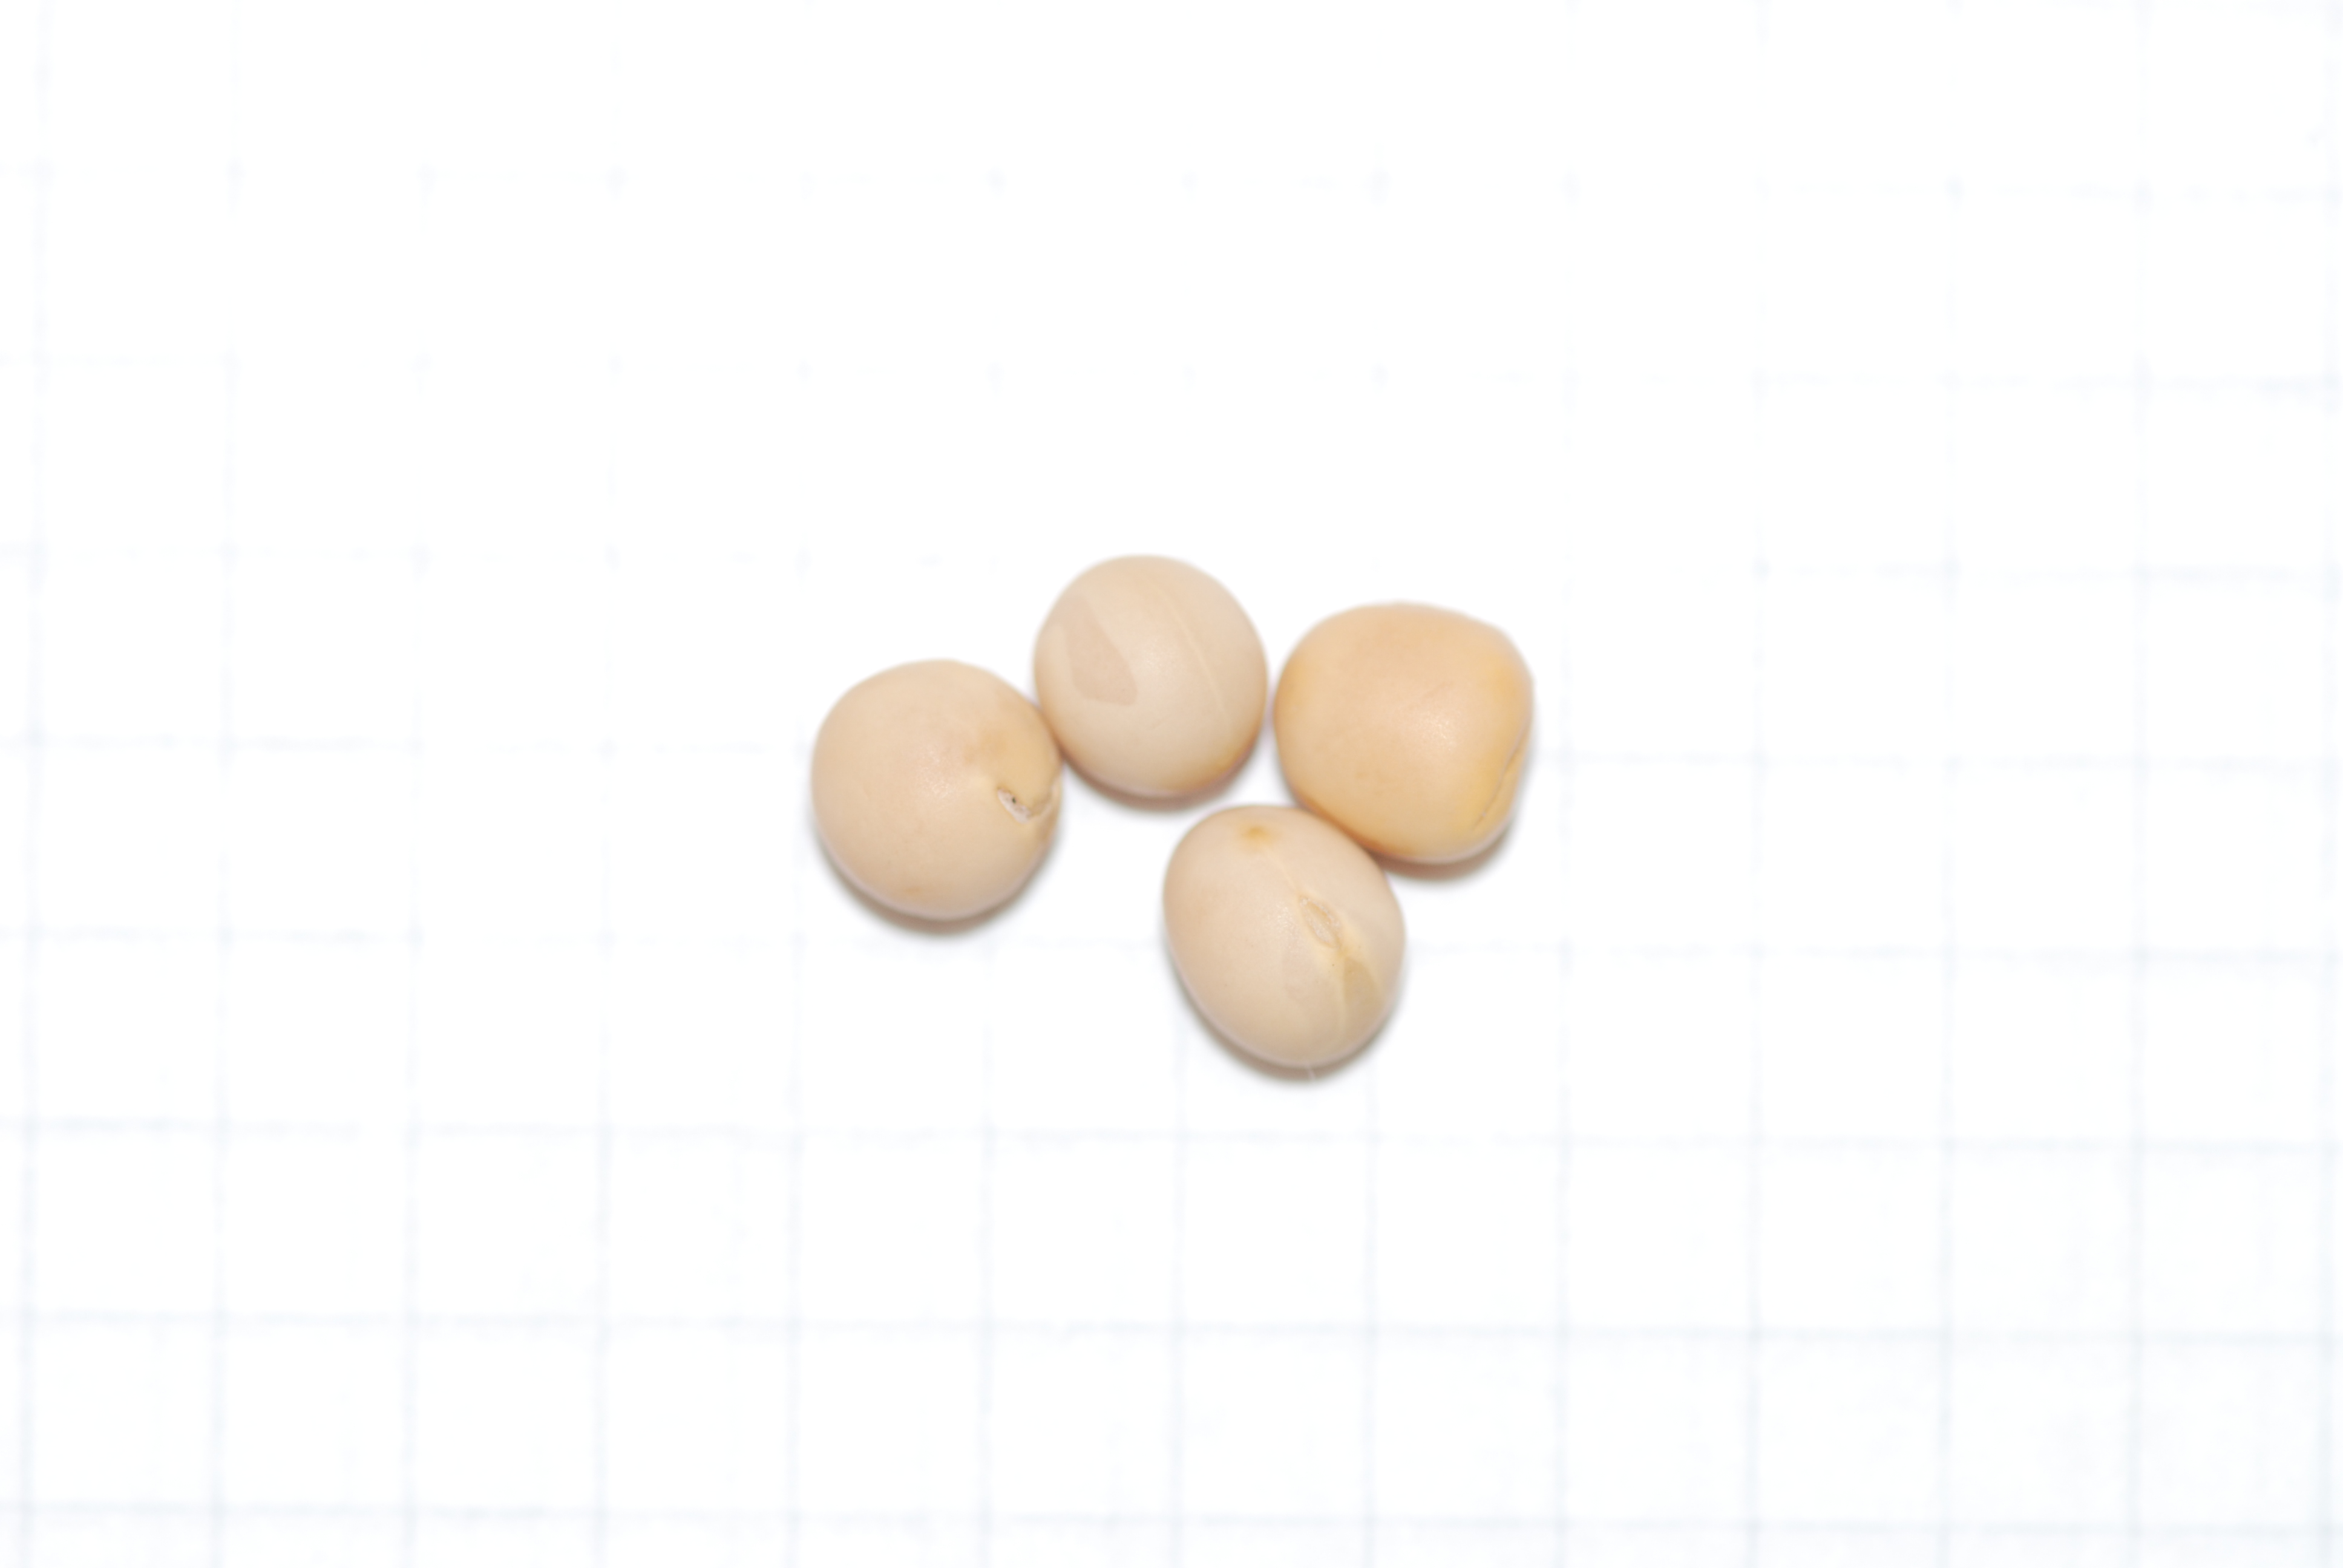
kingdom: Plantae
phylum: Tracheophyta
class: Magnoliopsida
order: Fabales
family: Fabaceae
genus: Lathyrus
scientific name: Lathyrus oleraceus
